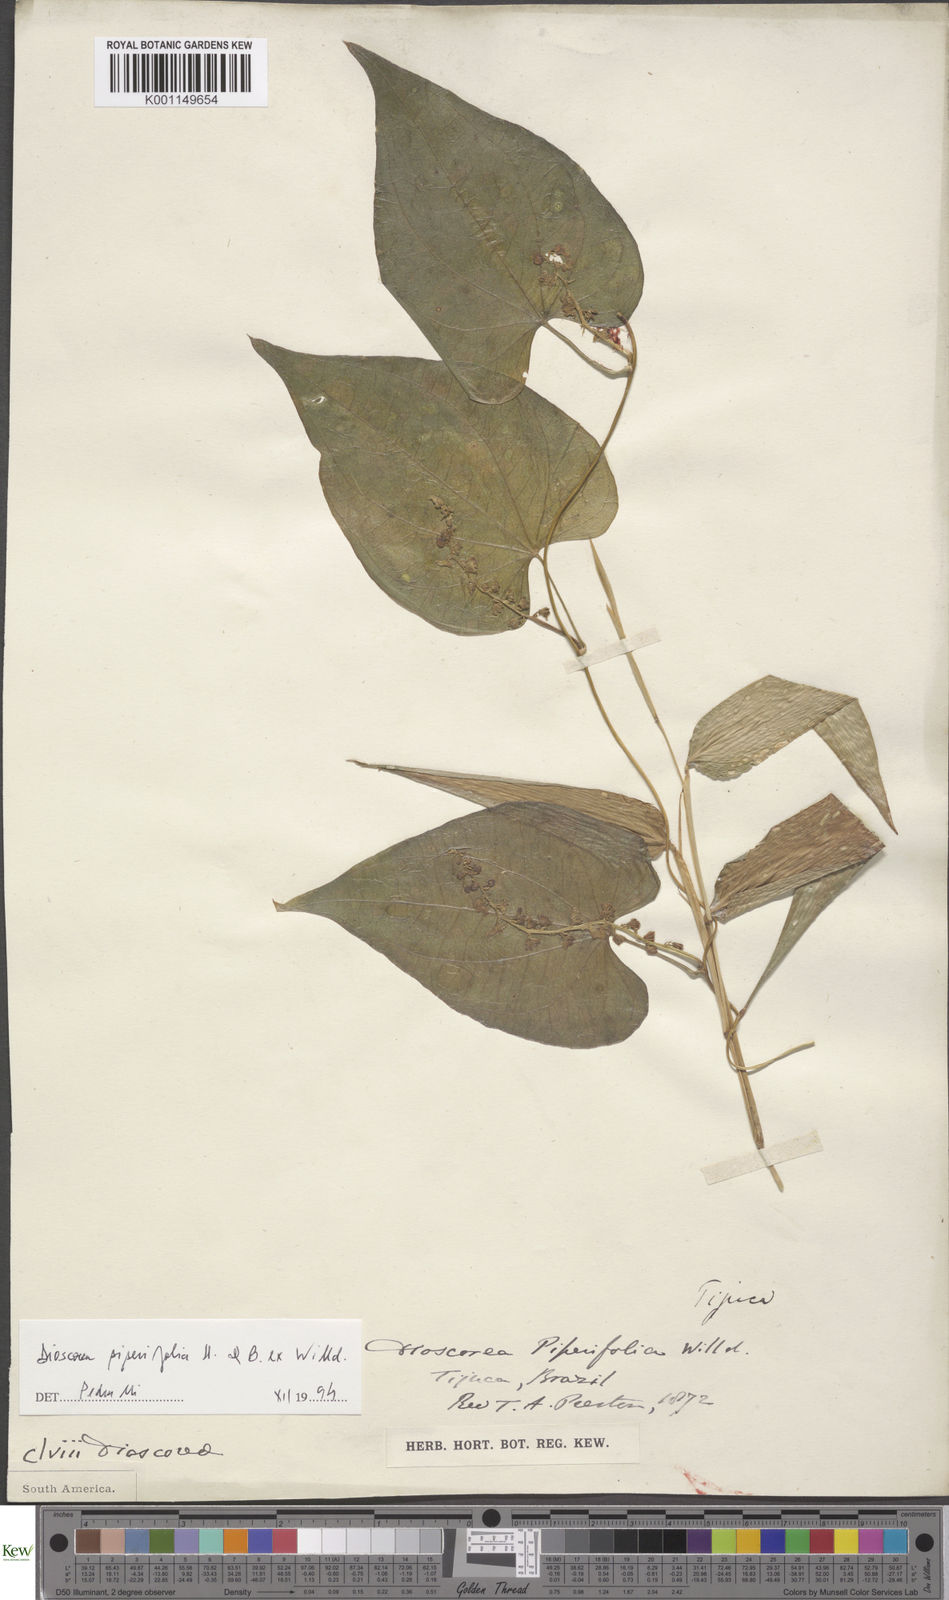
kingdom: Plantae
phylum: Tracheophyta
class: Liliopsida
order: Dioscoreales
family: Dioscoreaceae
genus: Dioscorea
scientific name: Dioscorea glandulosa
